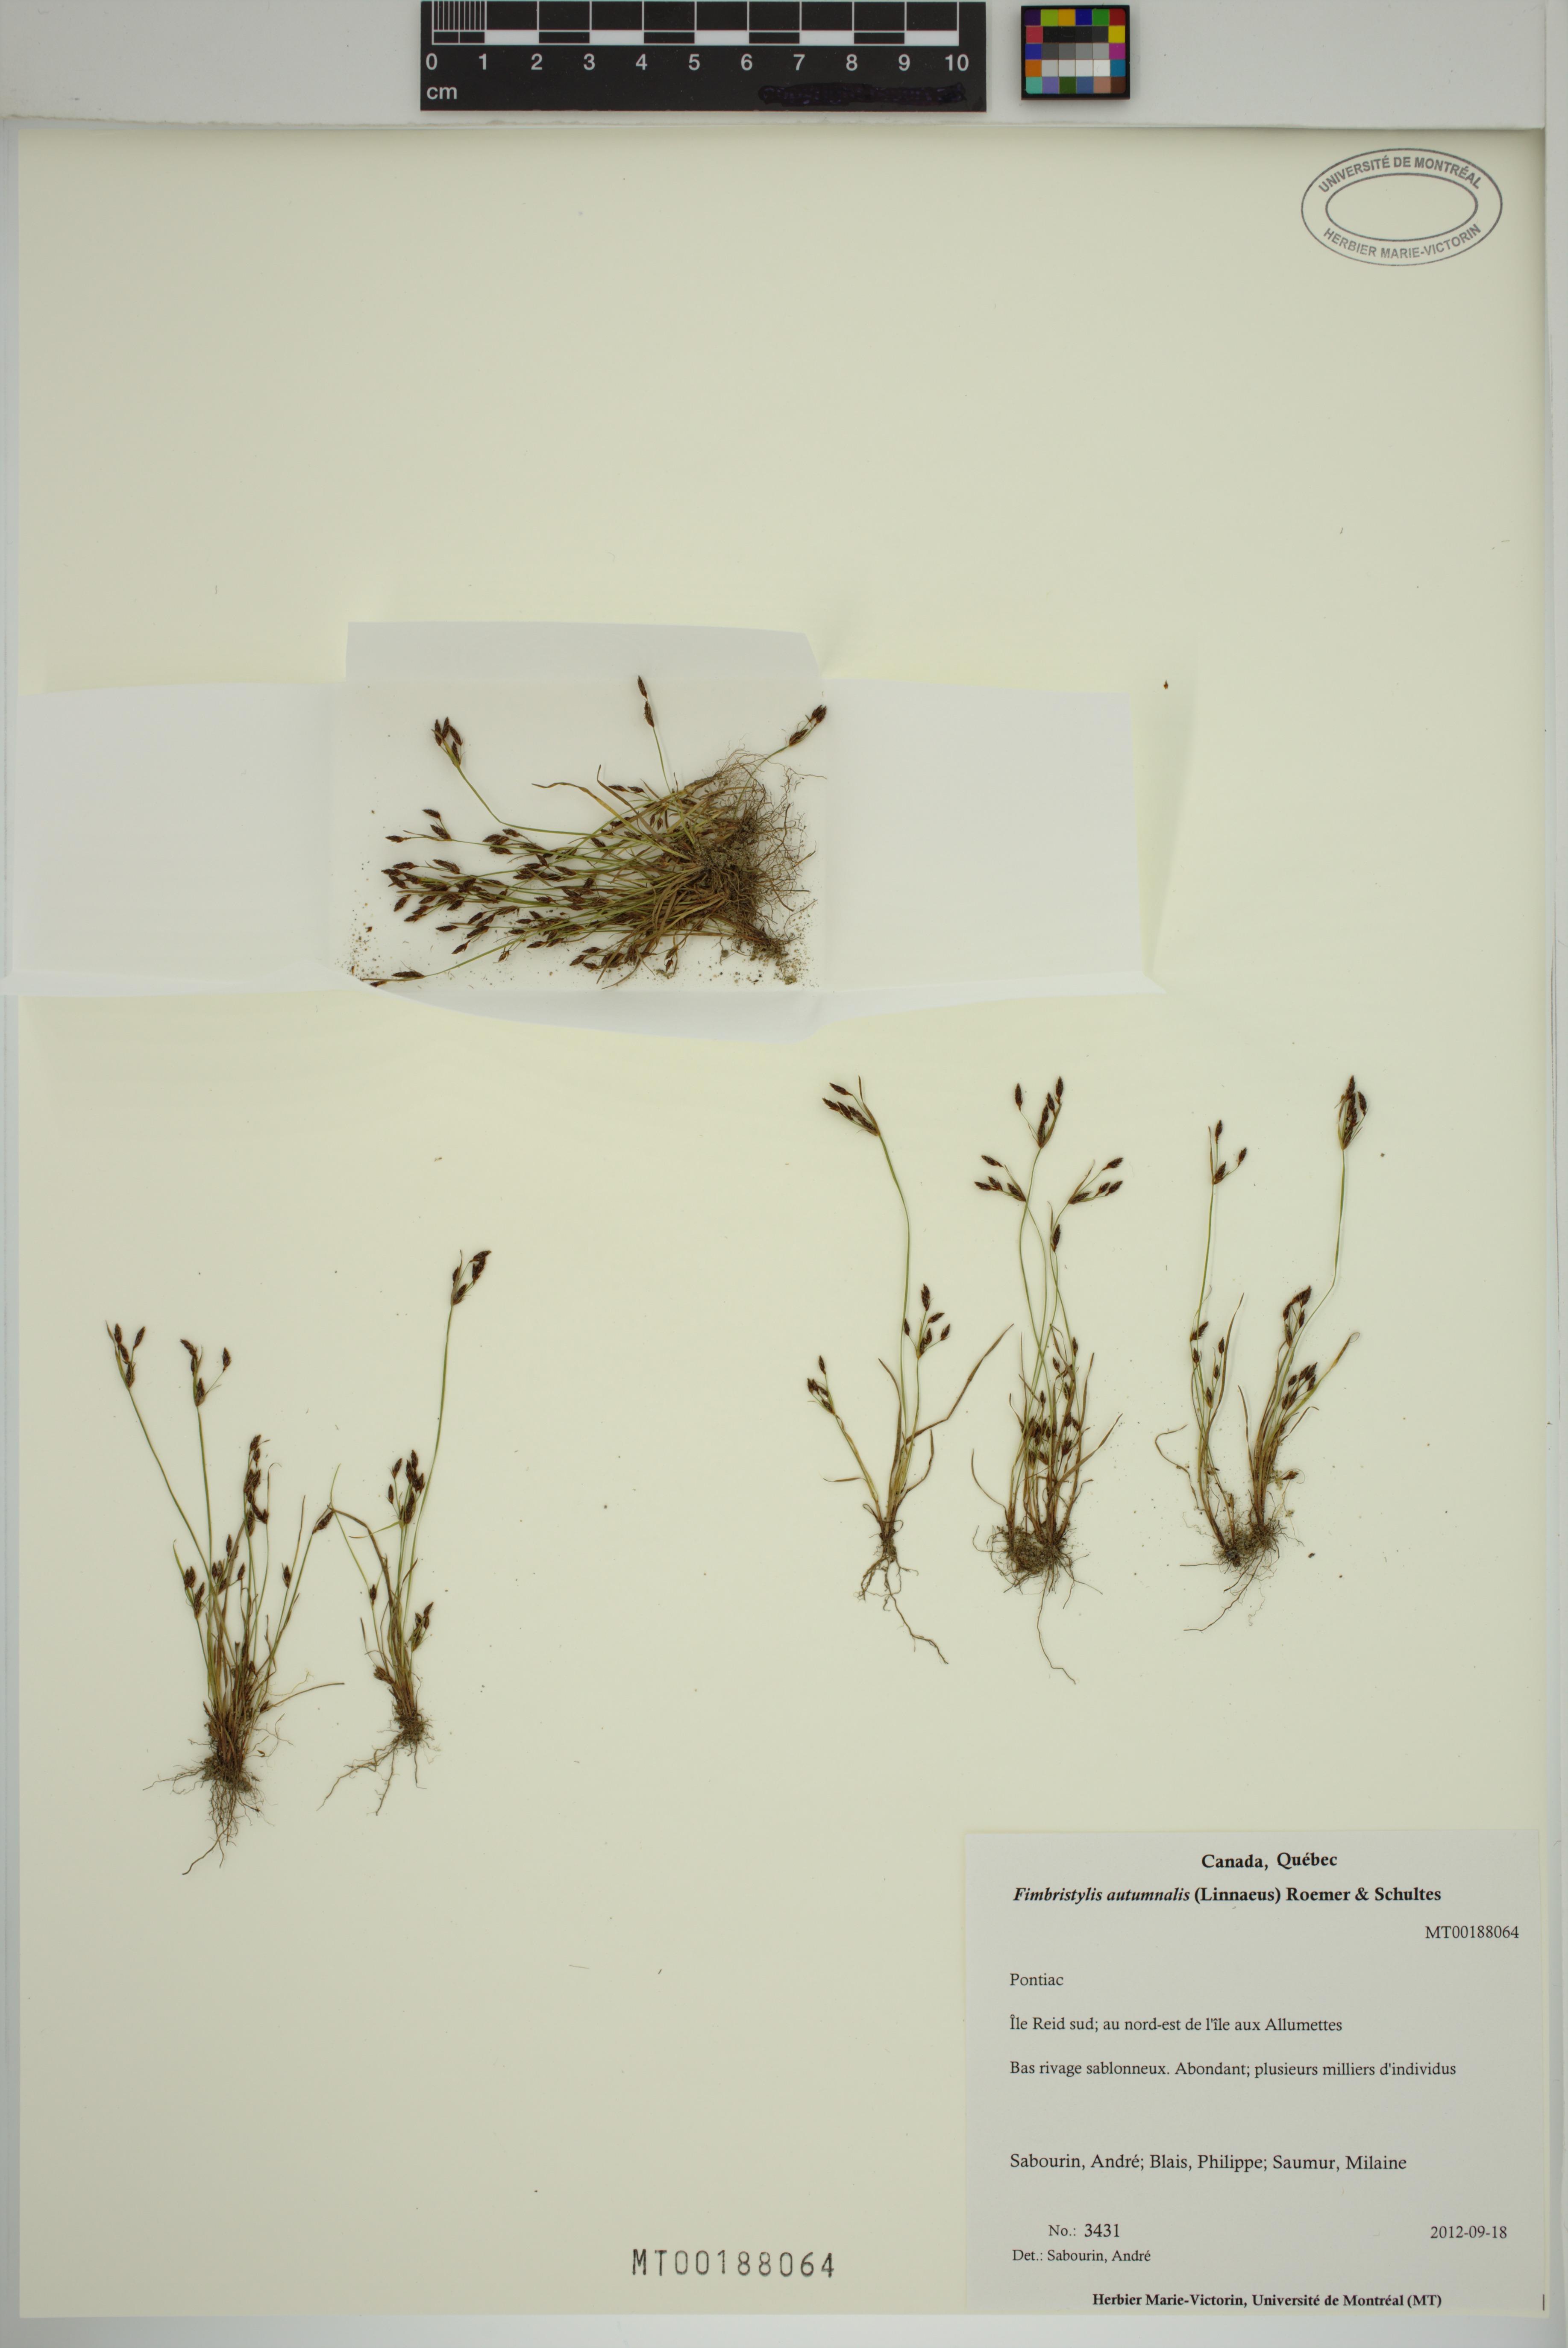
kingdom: Plantae
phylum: Tracheophyta
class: Liliopsida
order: Poales
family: Cyperaceae
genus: Fimbristylis
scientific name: Fimbristylis autumnalis
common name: Slender fimbristylis
